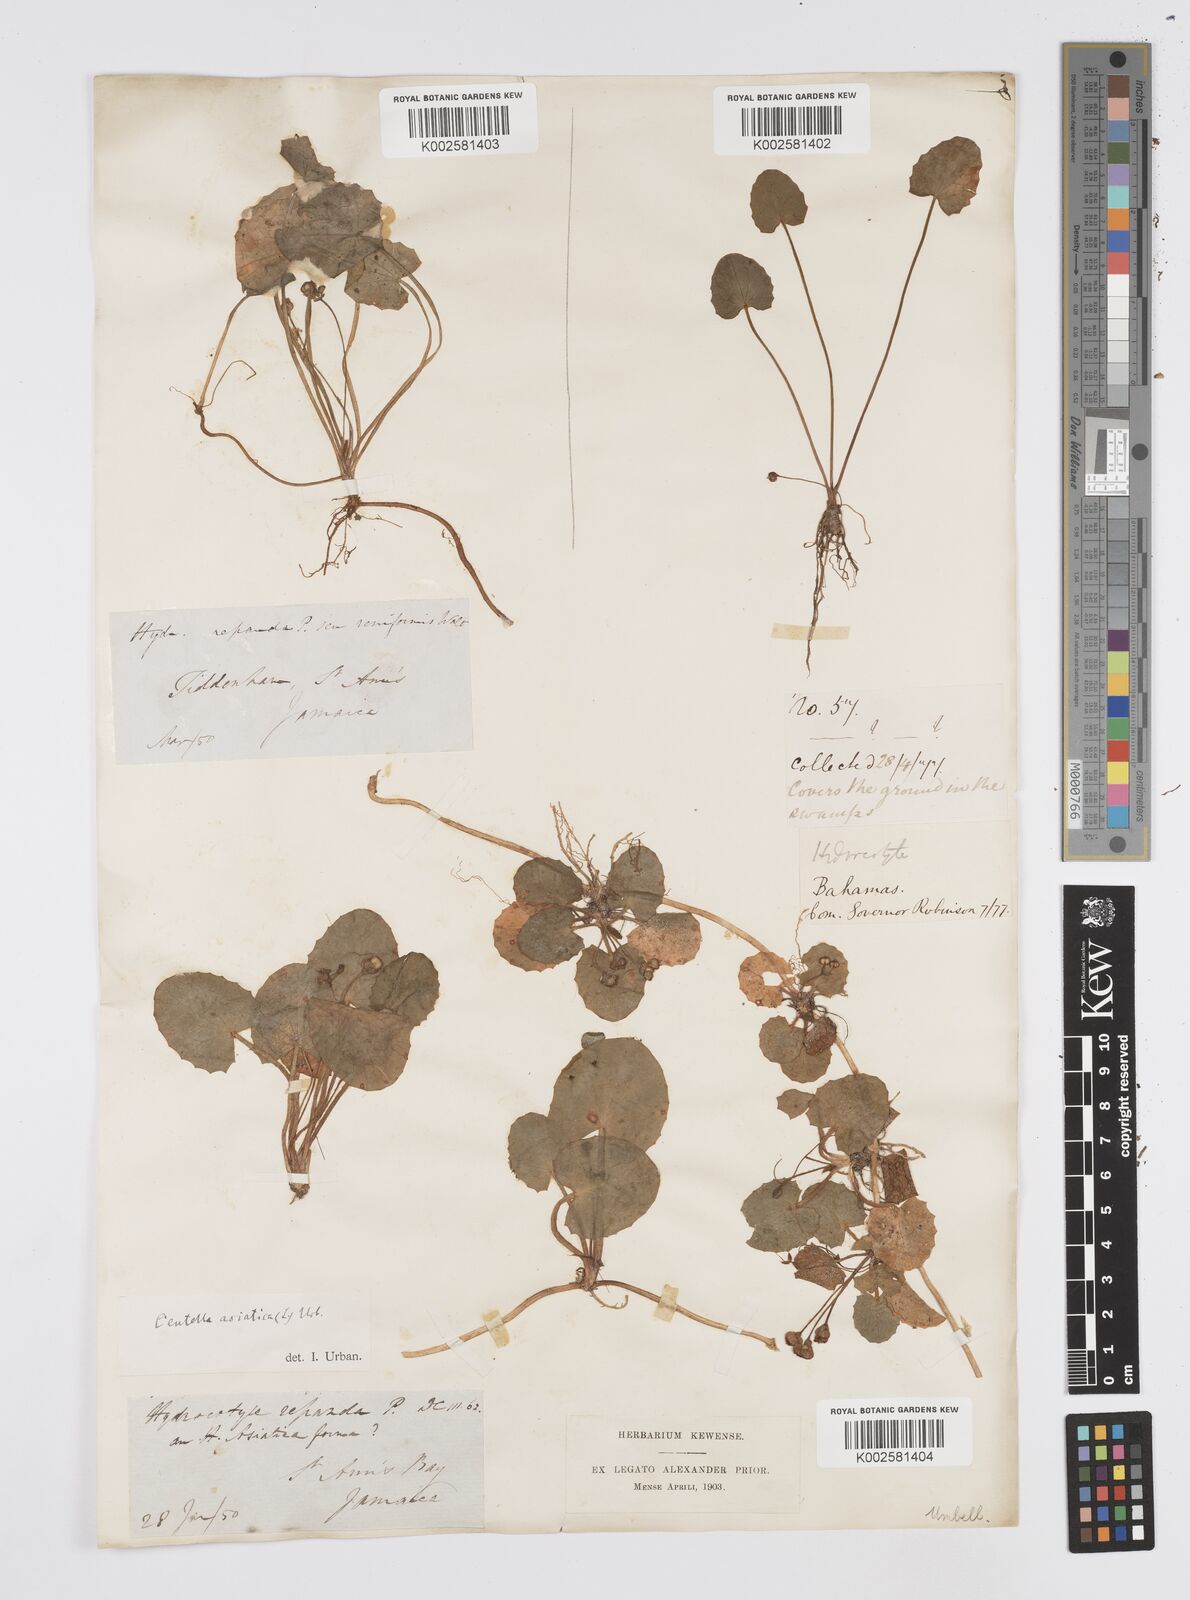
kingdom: Plantae
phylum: Tracheophyta
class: Magnoliopsida
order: Apiales
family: Apiaceae
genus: Centella
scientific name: Centella asiatica
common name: Spadeleaf
